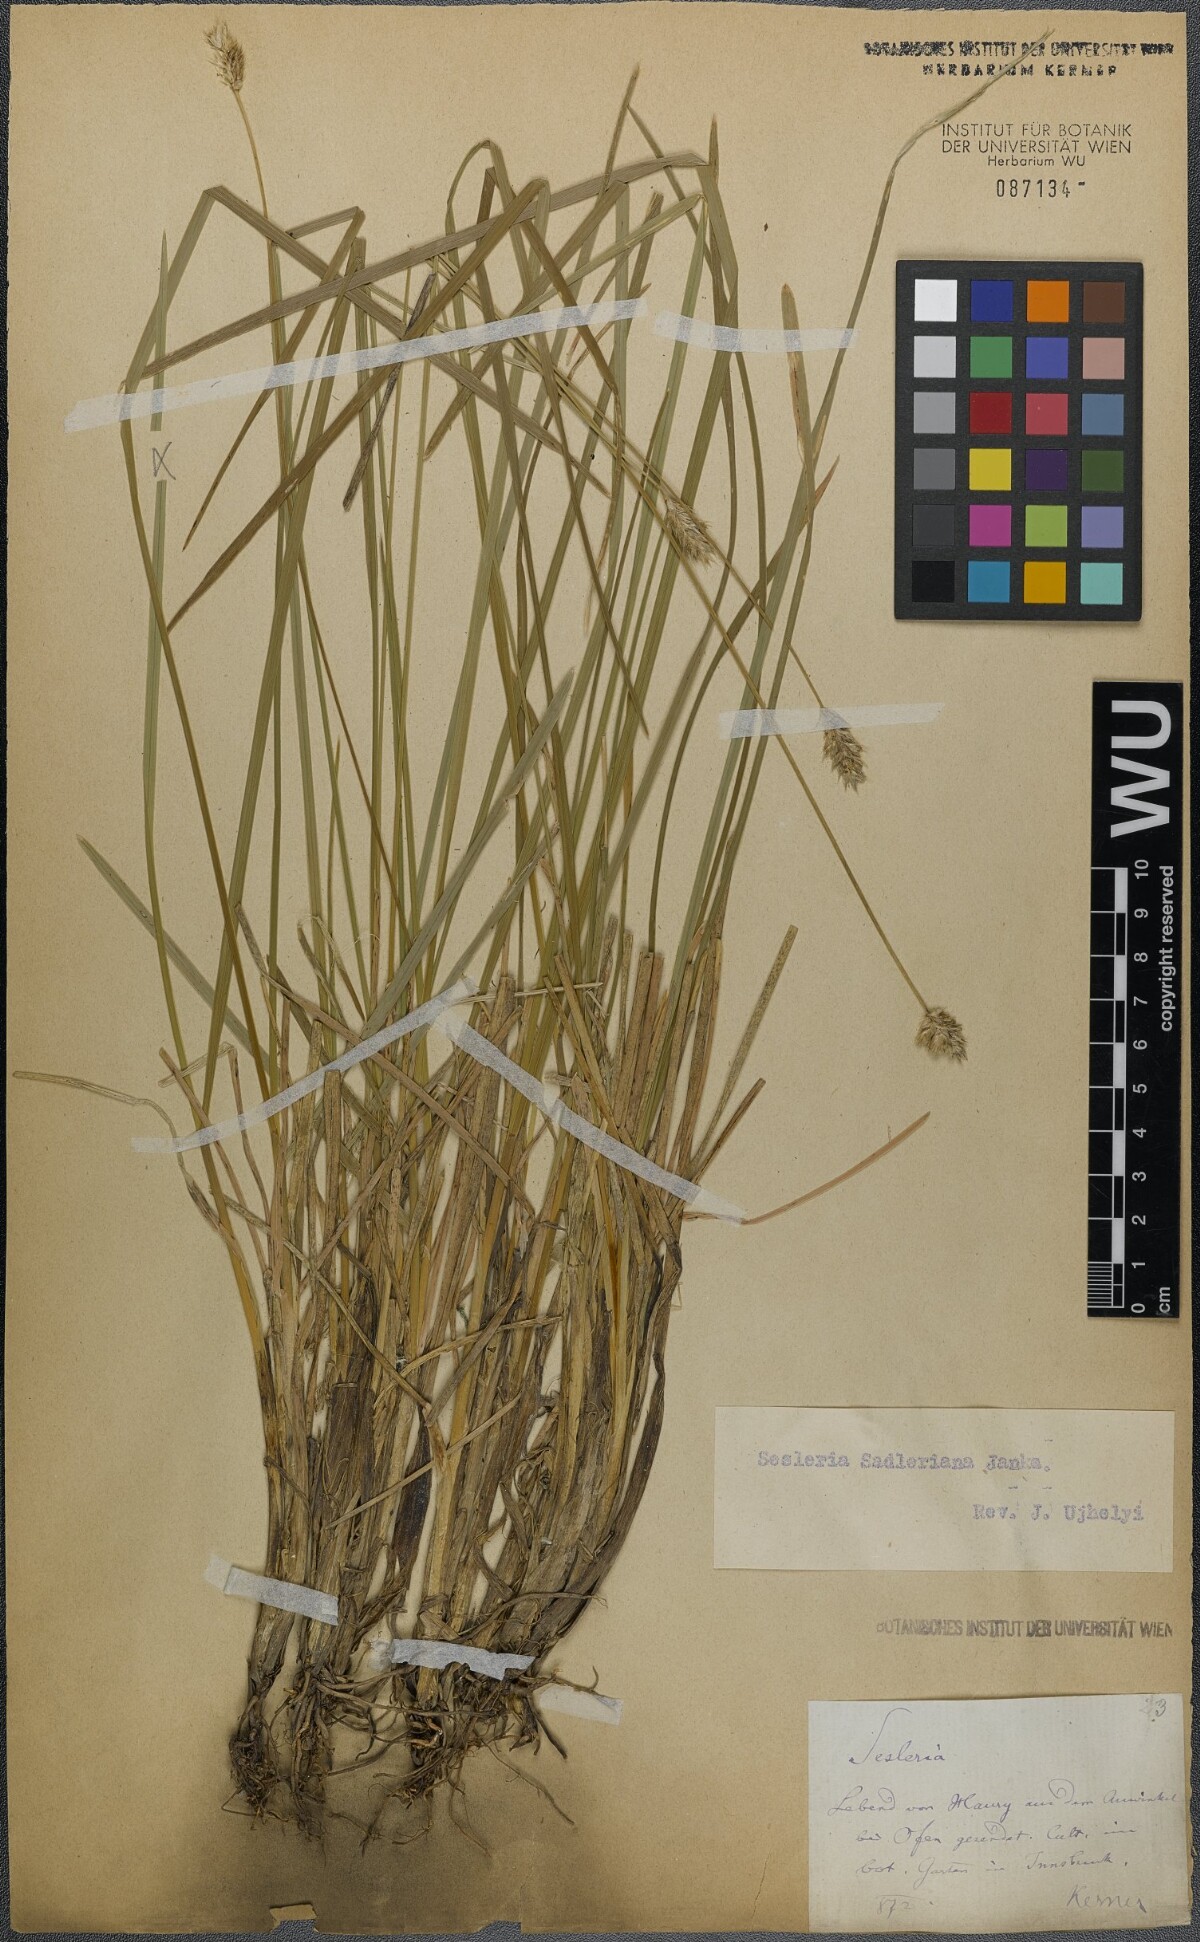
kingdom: Plantae
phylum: Tracheophyta
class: Liliopsida
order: Poales
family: Poaceae
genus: Sesleria
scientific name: Sesleria sadleriana
